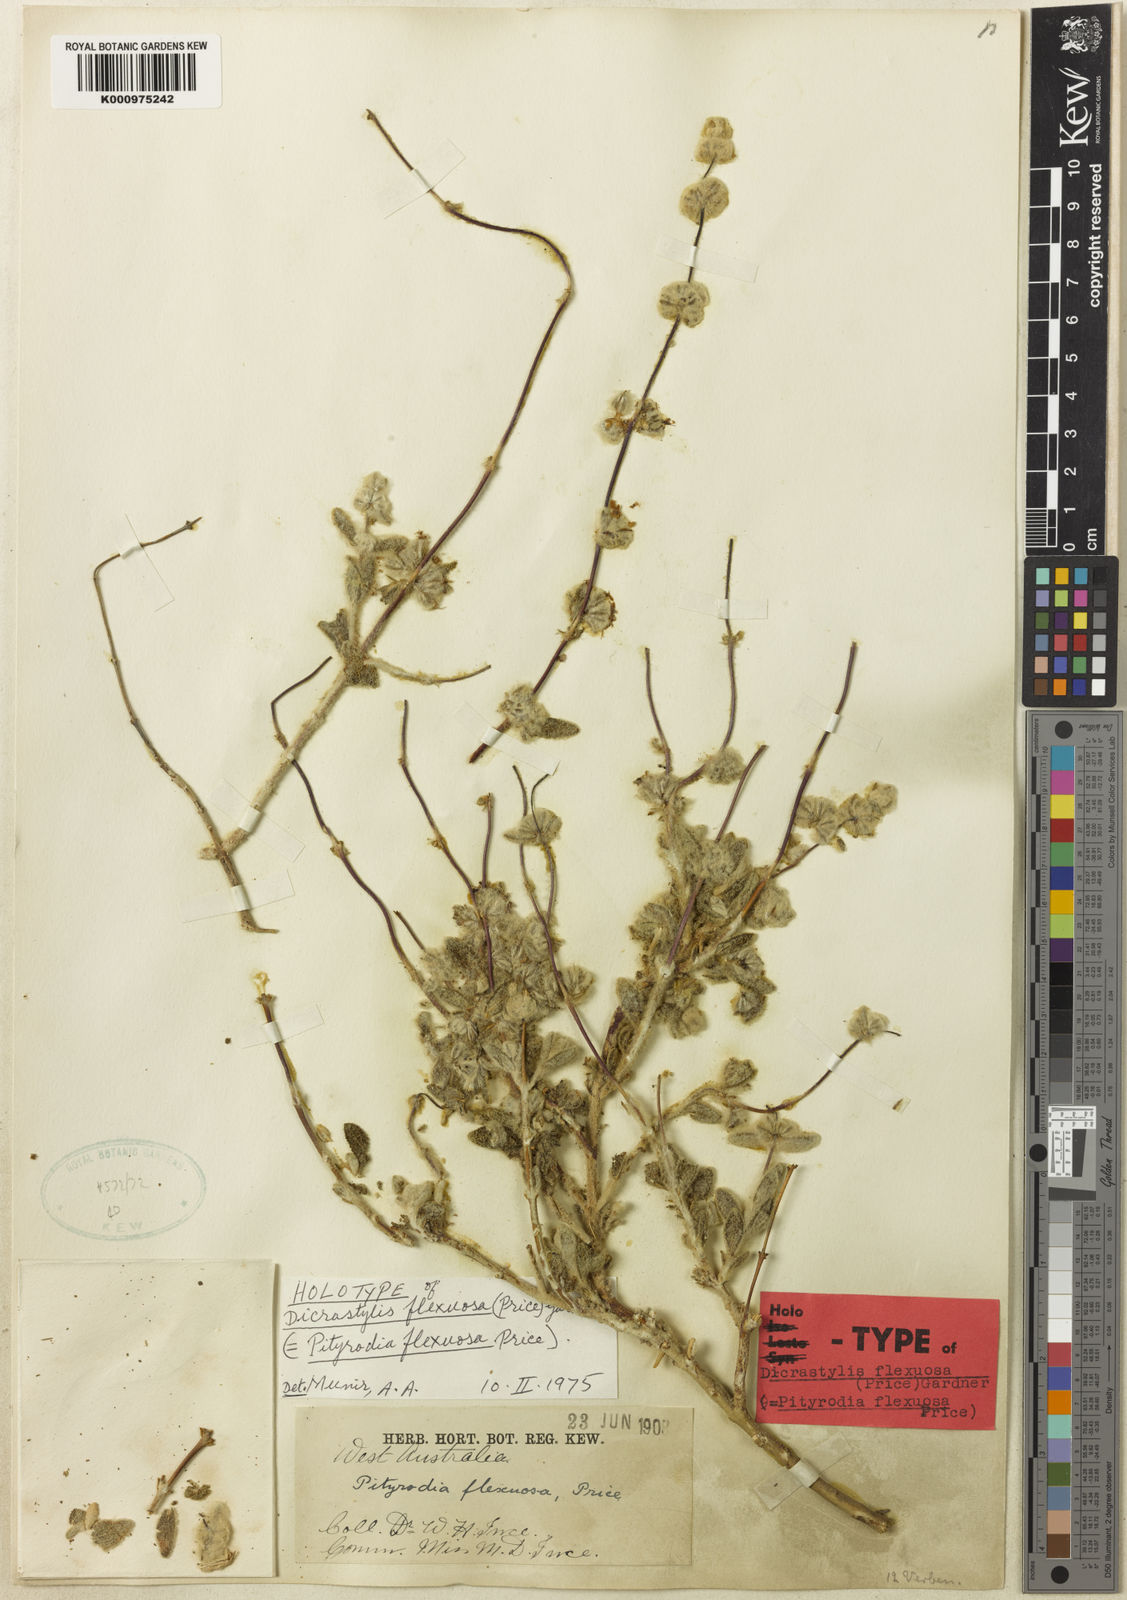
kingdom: Plantae
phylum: Tracheophyta
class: Magnoliopsida
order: Lamiales
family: Lamiaceae
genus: Dicrastylis
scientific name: Dicrastylis flexuosa
